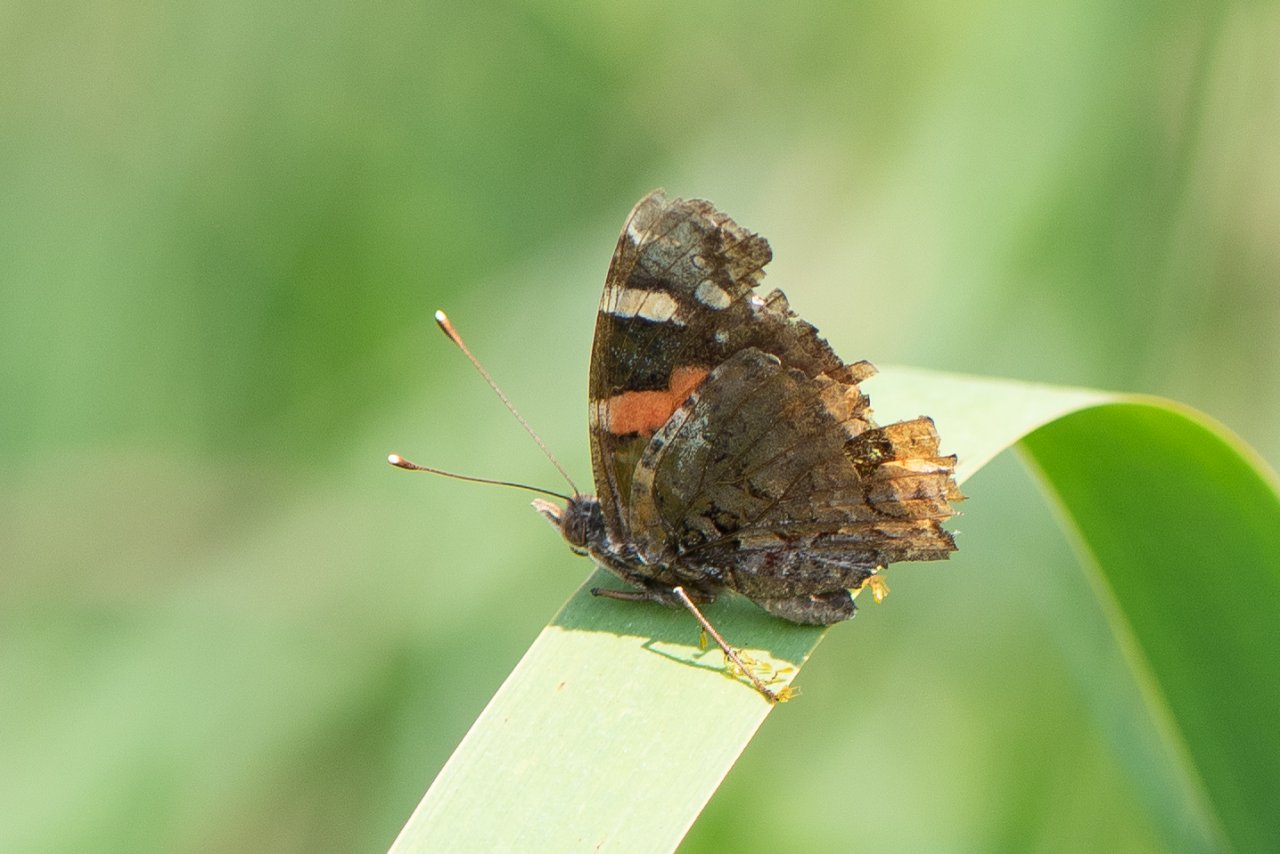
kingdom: Animalia
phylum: Arthropoda
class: Insecta
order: Lepidoptera
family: Nymphalidae
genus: Vanessa
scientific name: Vanessa atalanta
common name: Red Admiral
